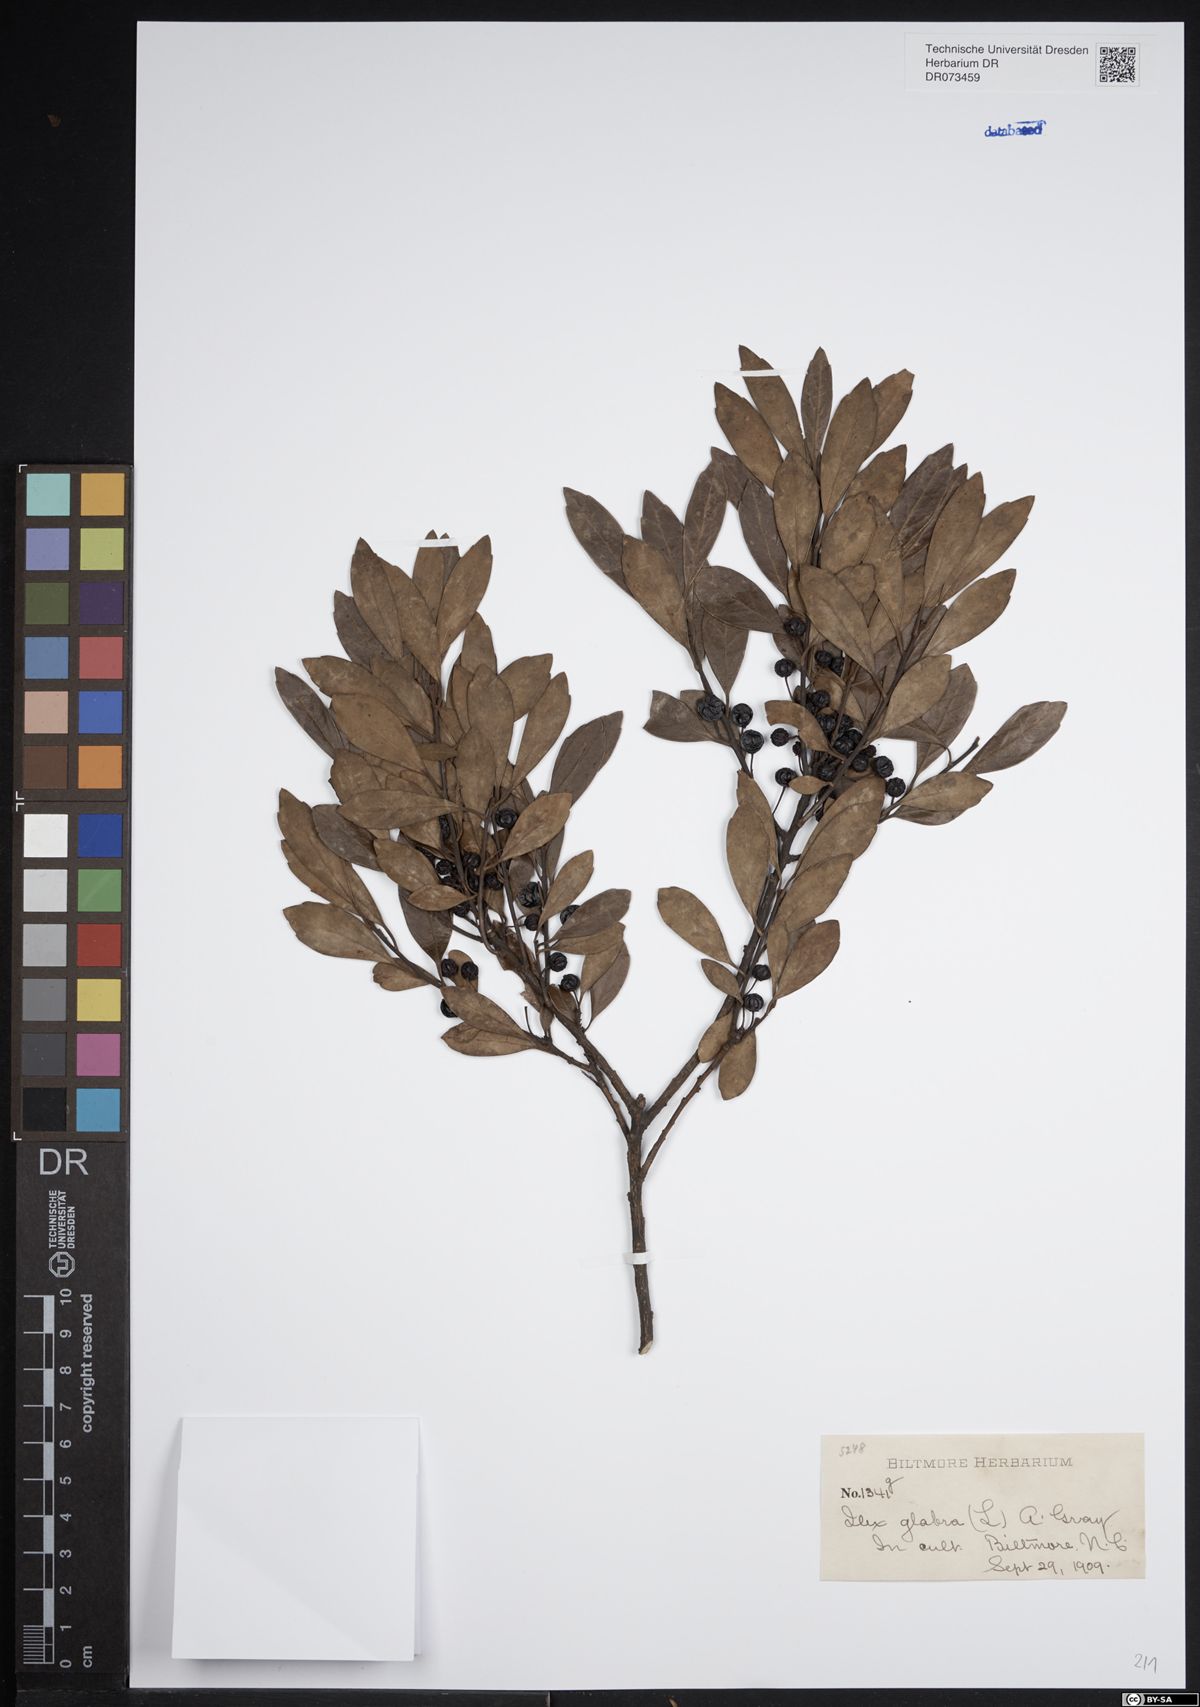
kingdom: Plantae
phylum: Tracheophyta
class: Magnoliopsida
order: Aquifoliales
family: Aquifoliaceae
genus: Ilex
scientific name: Ilex glabra
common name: Bitter gallberry
